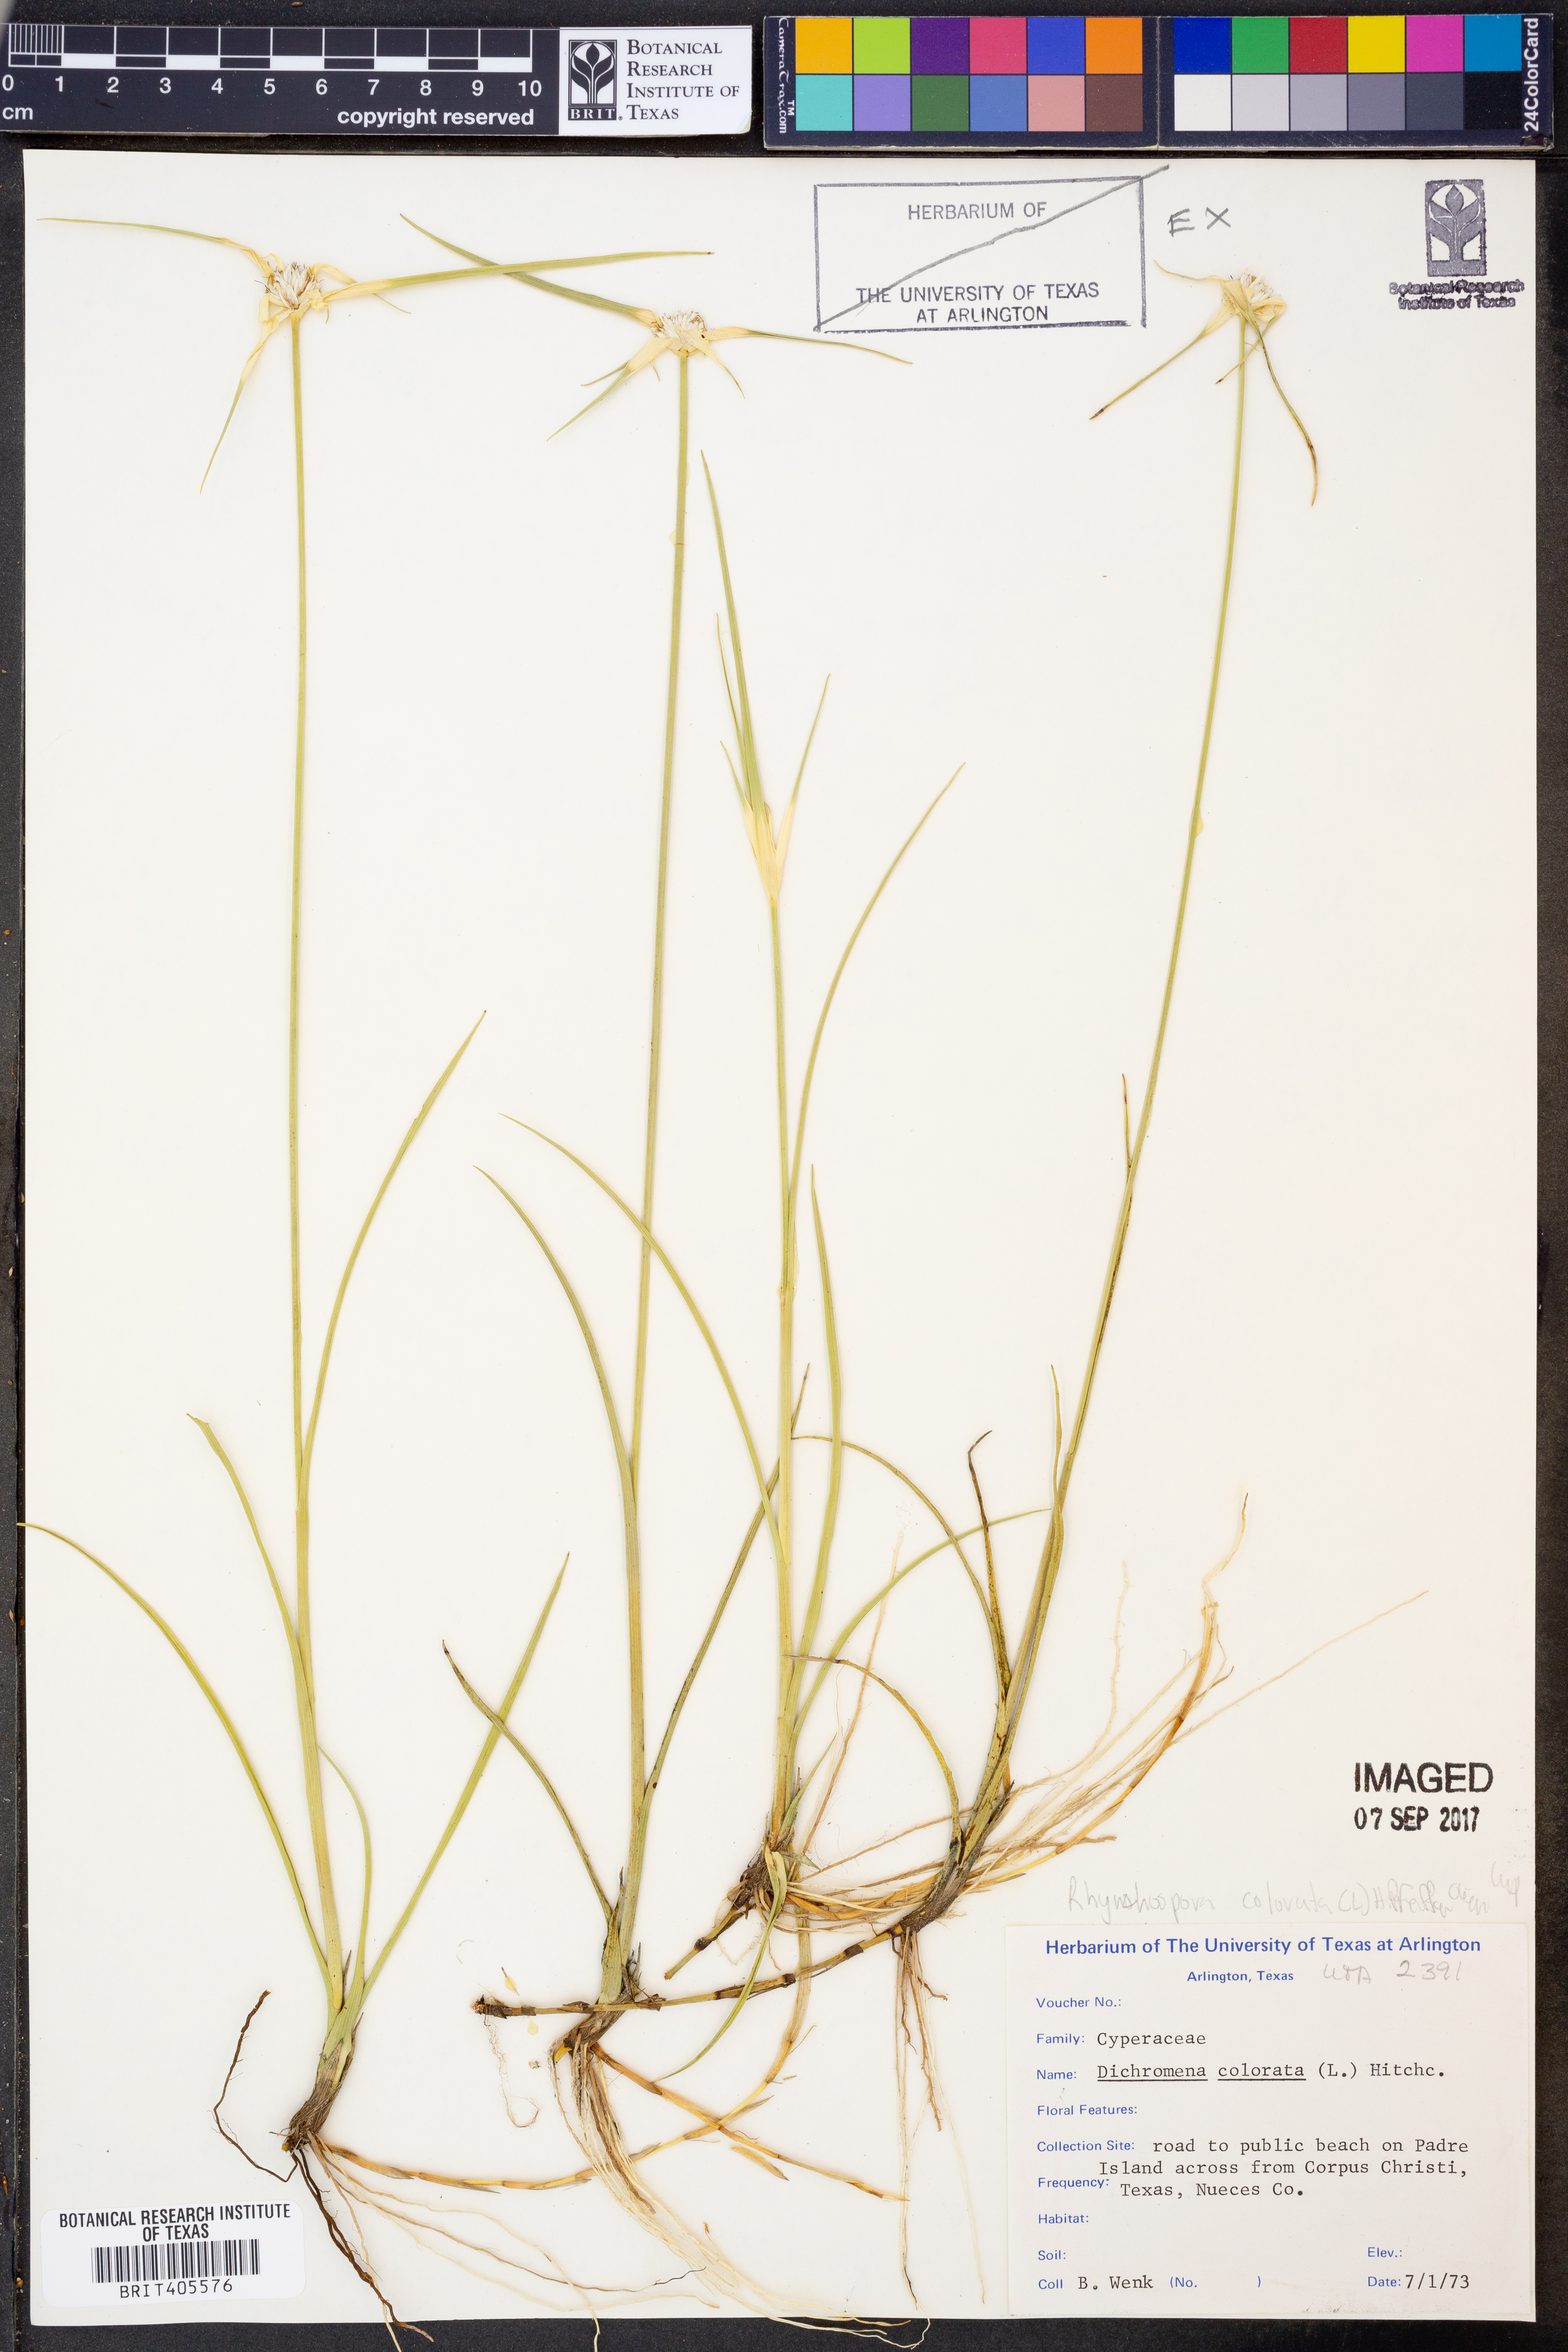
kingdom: Plantae
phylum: Tracheophyta
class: Liliopsida
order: Poales
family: Cyperaceae
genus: Rhynchospora
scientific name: Rhynchospora colorata
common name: Star sedge
